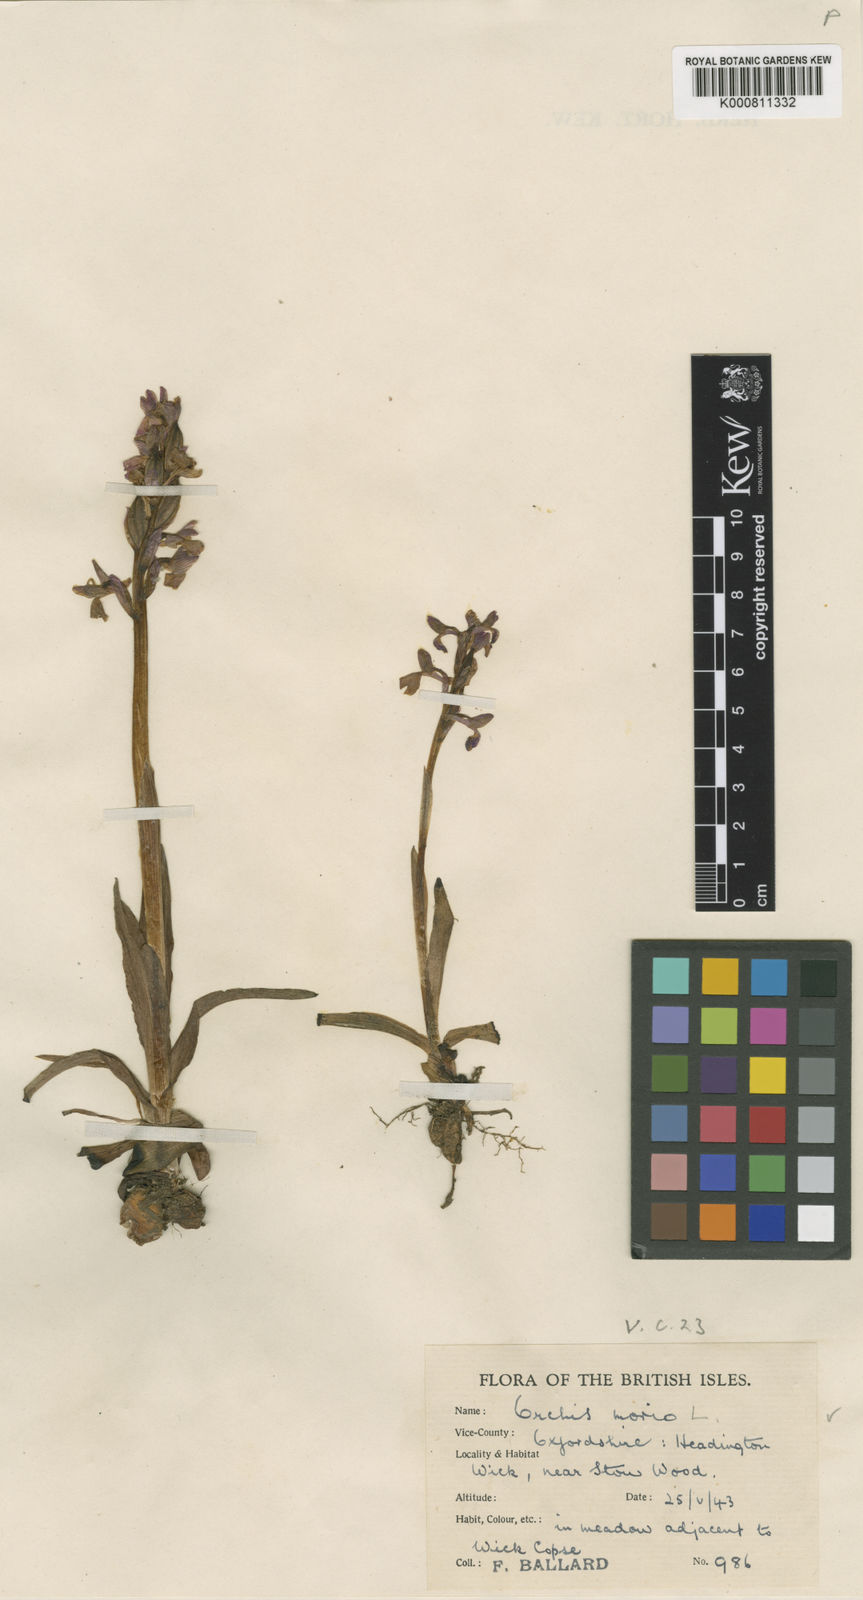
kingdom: Plantae
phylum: Tracheophyta
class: Liliopsida
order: Asparagales
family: Orchidaceae
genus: Anacamptis
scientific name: Anacamptis morio
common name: Green-winged orchid
